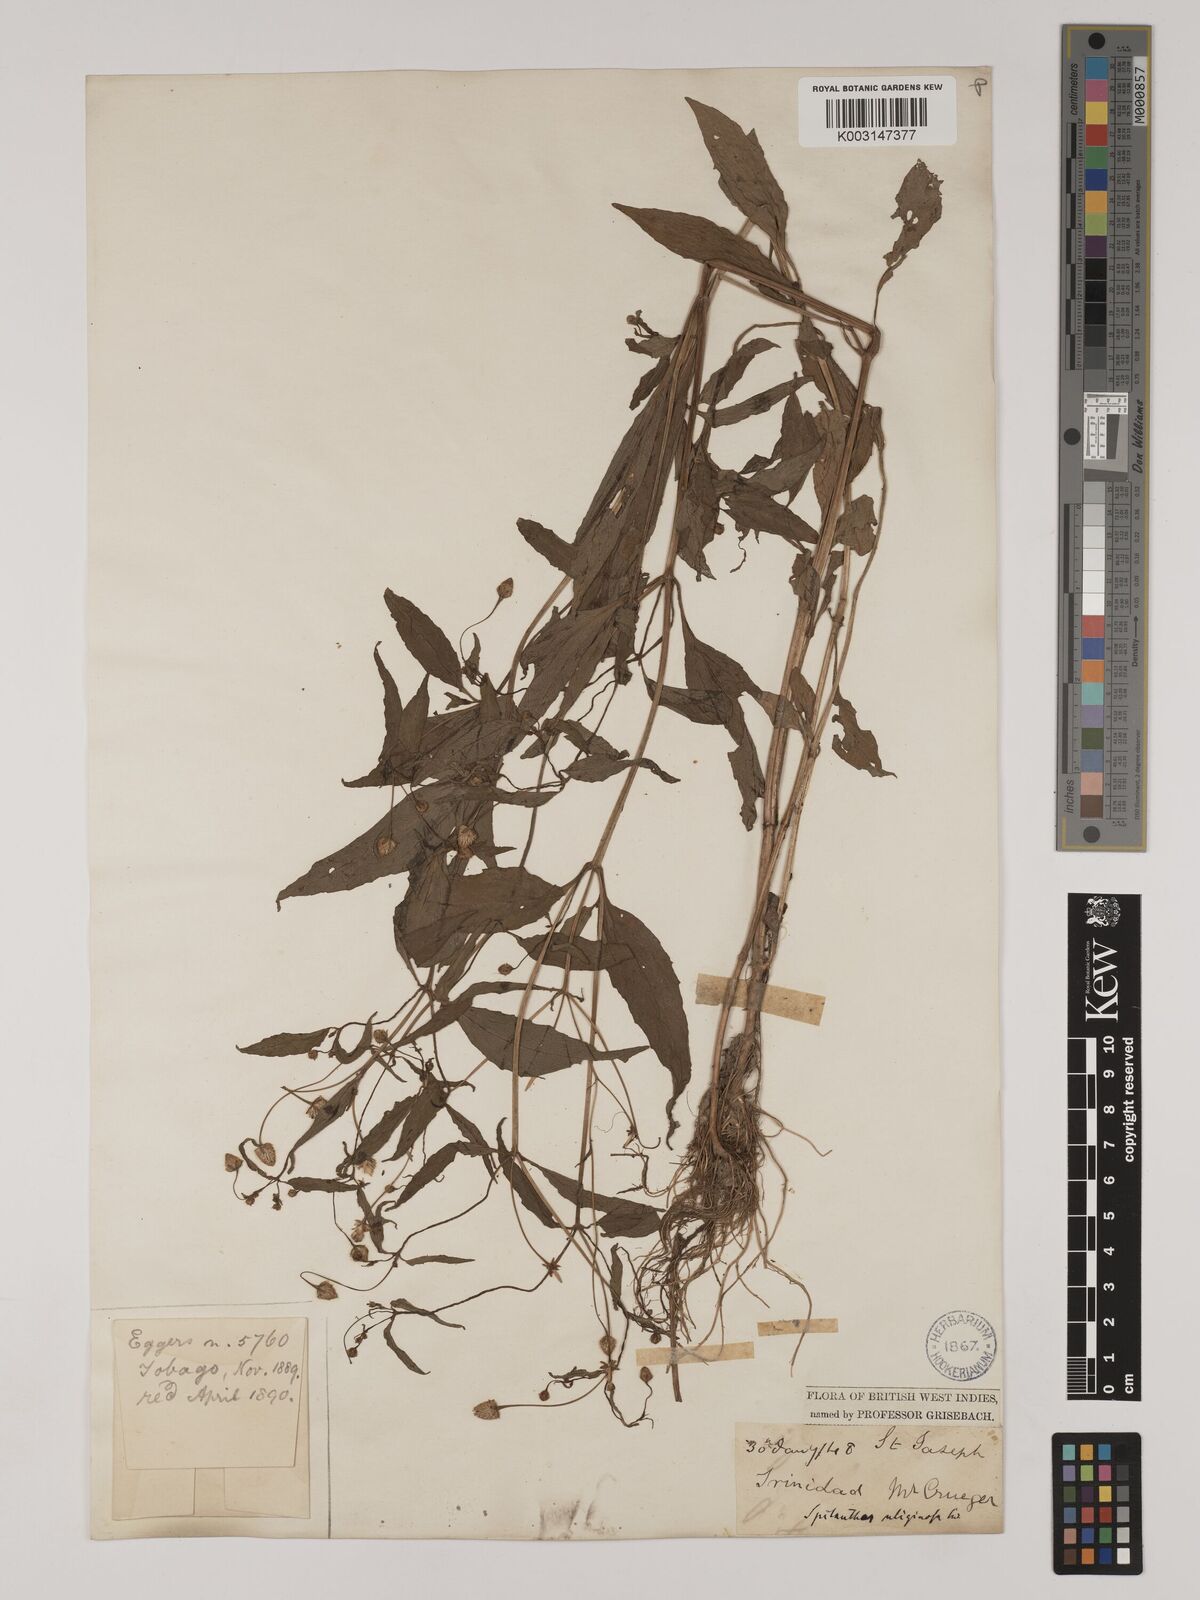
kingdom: Plantae
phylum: Tracheophyta
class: Magnoliopsida
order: Asterales
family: Asteraceae
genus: Acmella
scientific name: Acmella uliginosa
